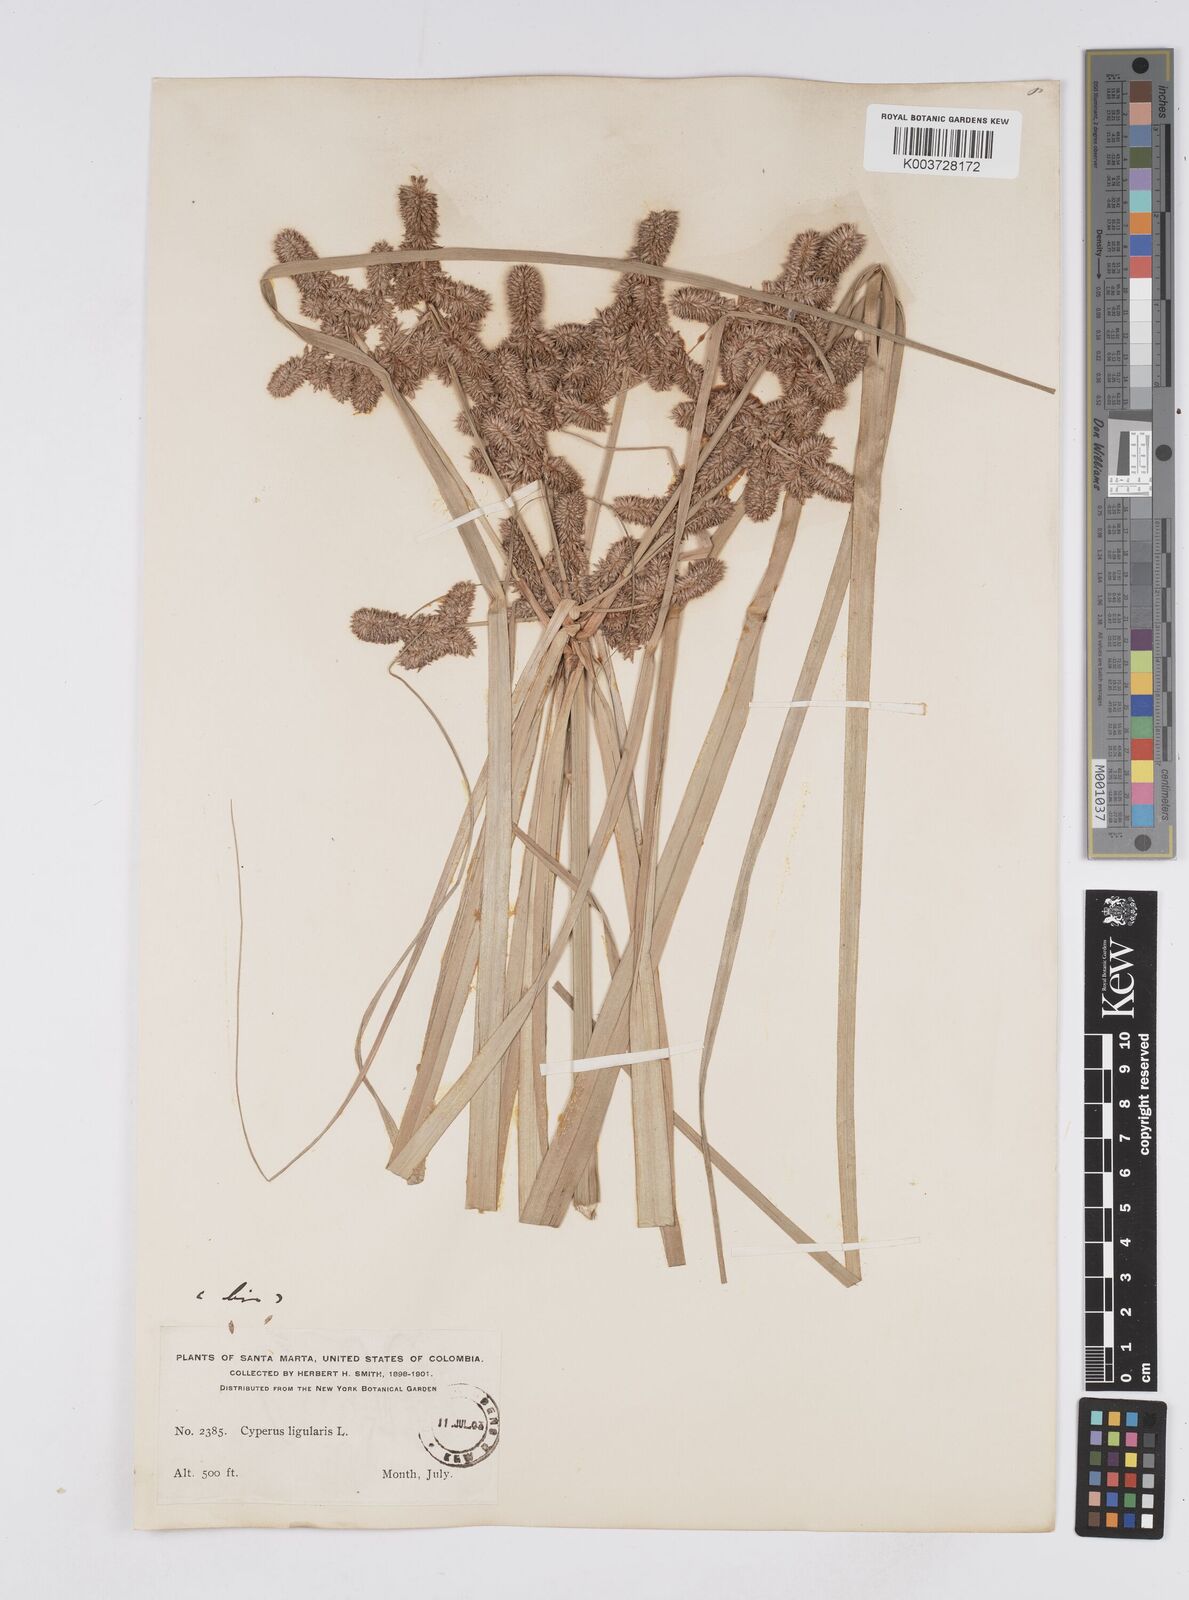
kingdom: Plantae
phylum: Tracheophyta
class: Liliopsida
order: Poales
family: Cyperaceae
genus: Cyperus
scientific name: Cyperus ligularis
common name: Swamp flat sedge
